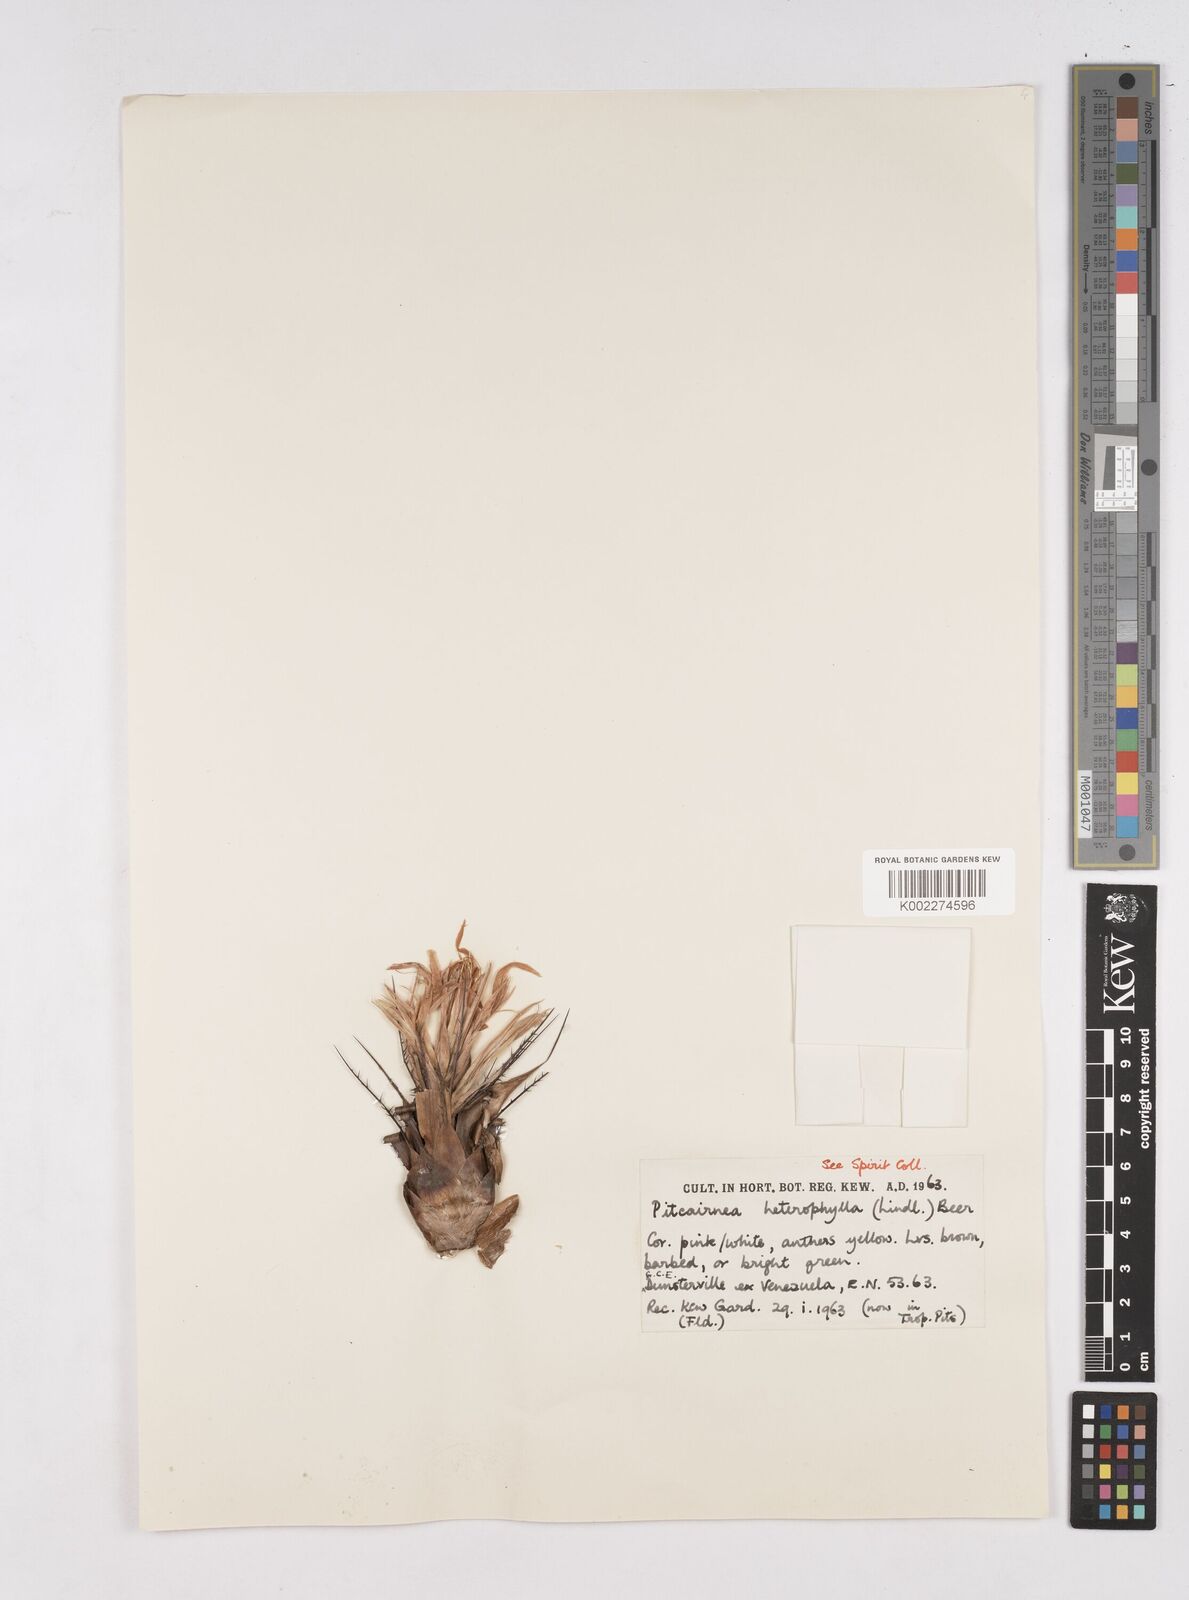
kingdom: Plantae
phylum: Tracheophyta
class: Liliopsida
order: Poales
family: Bromeliaceae
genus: Pitcairnia
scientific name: Pitcairnia heterophylla
